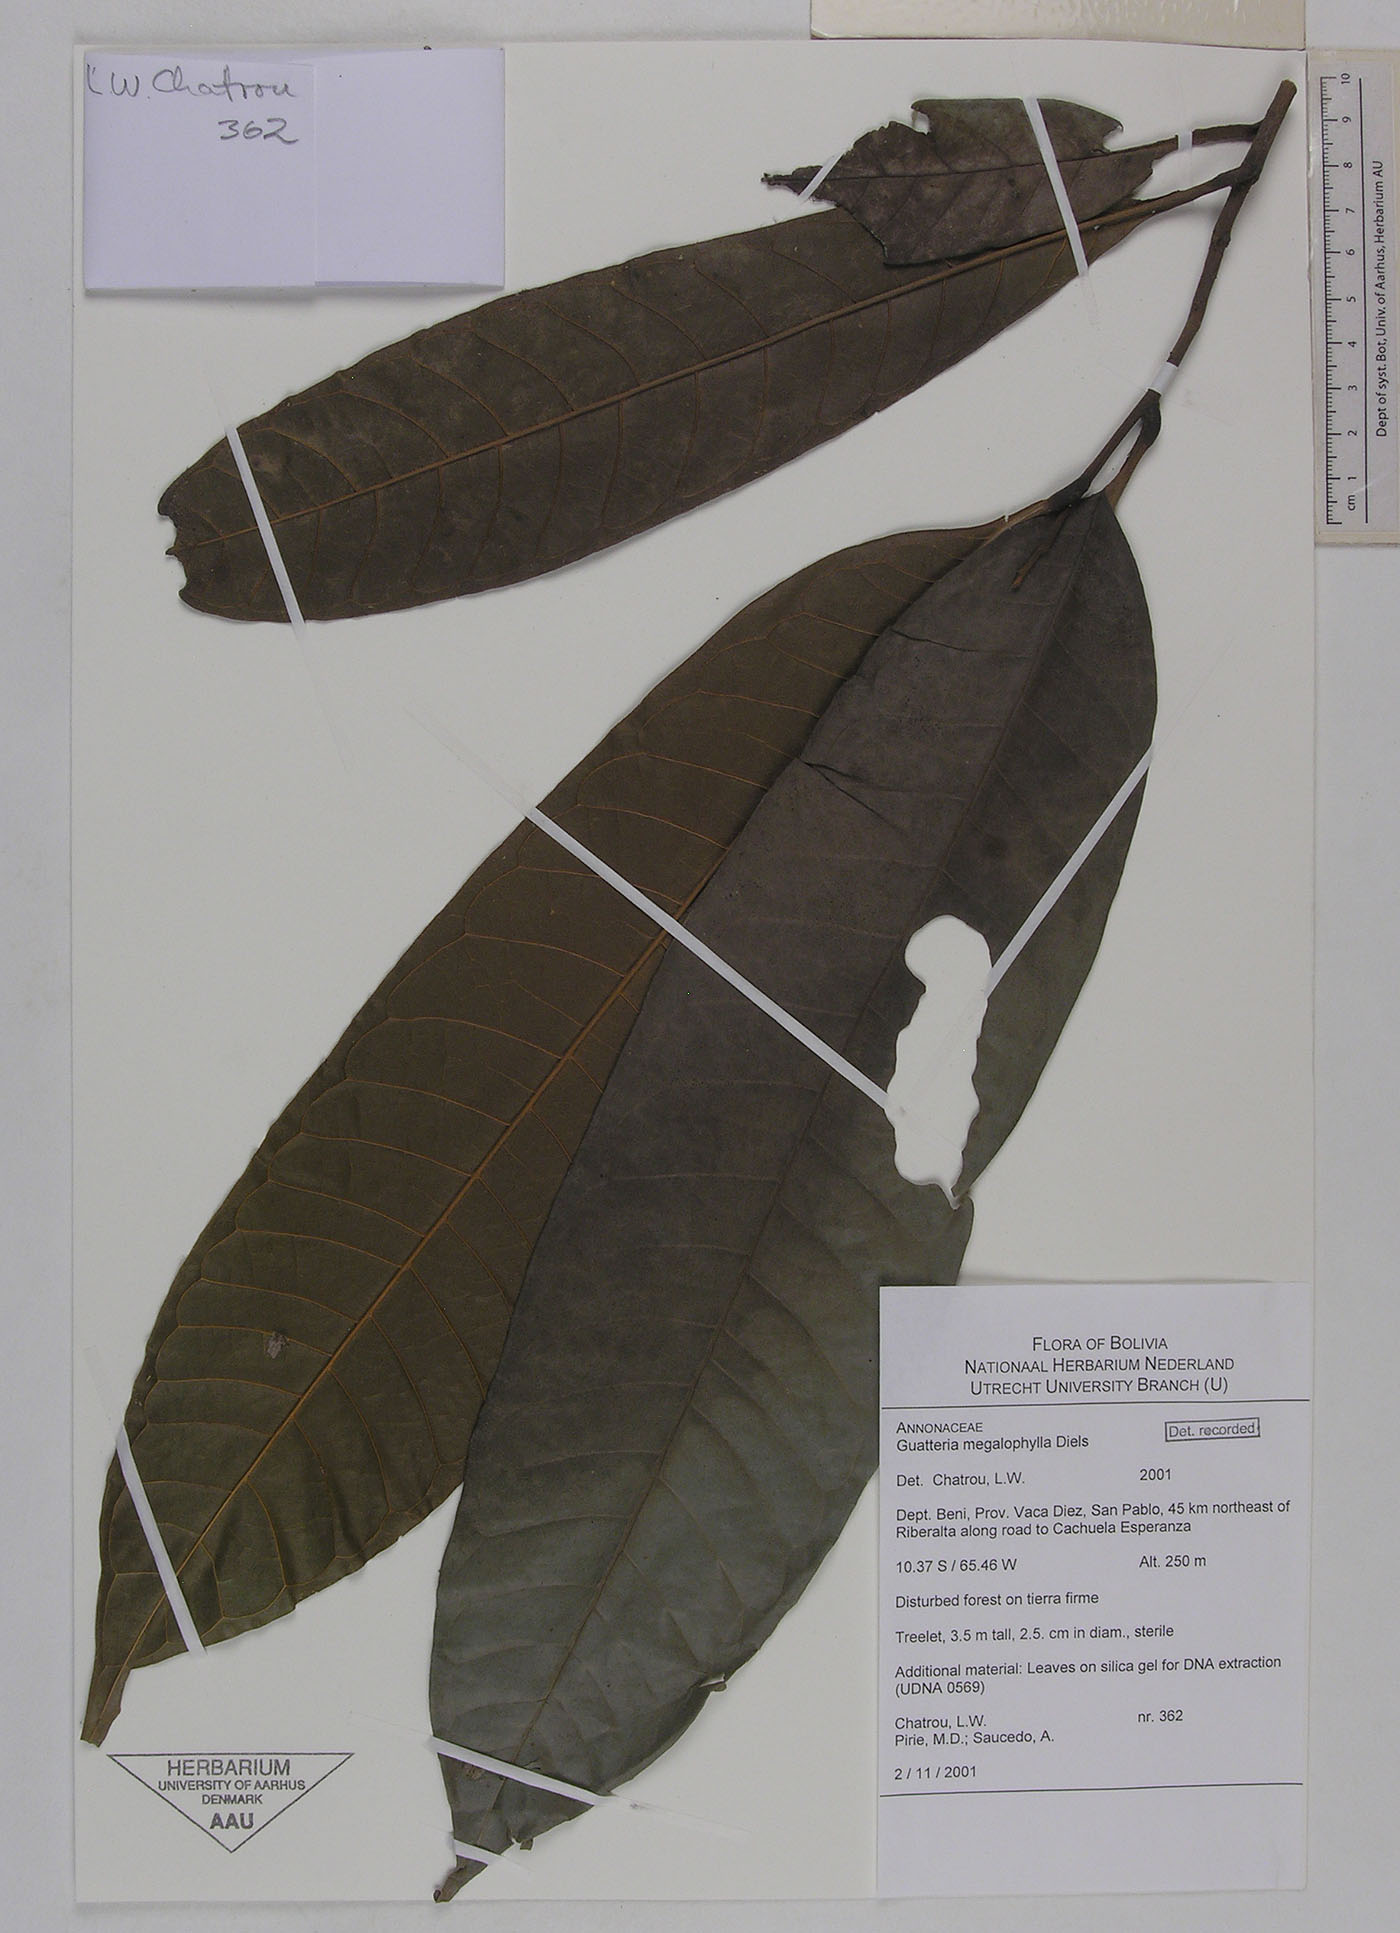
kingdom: Plantae
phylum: Tracheophyta
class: Magnoliopsida
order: Magnoliales
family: Annonaceae
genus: Guatteria
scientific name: Guatteria megalophylla
